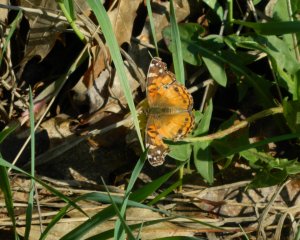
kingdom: Animalia
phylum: Arthropoda
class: Insecta
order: Lepidoptera
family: Nymphalidae
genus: Vanessa
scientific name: Vanessa virginiensis
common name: American Lady
